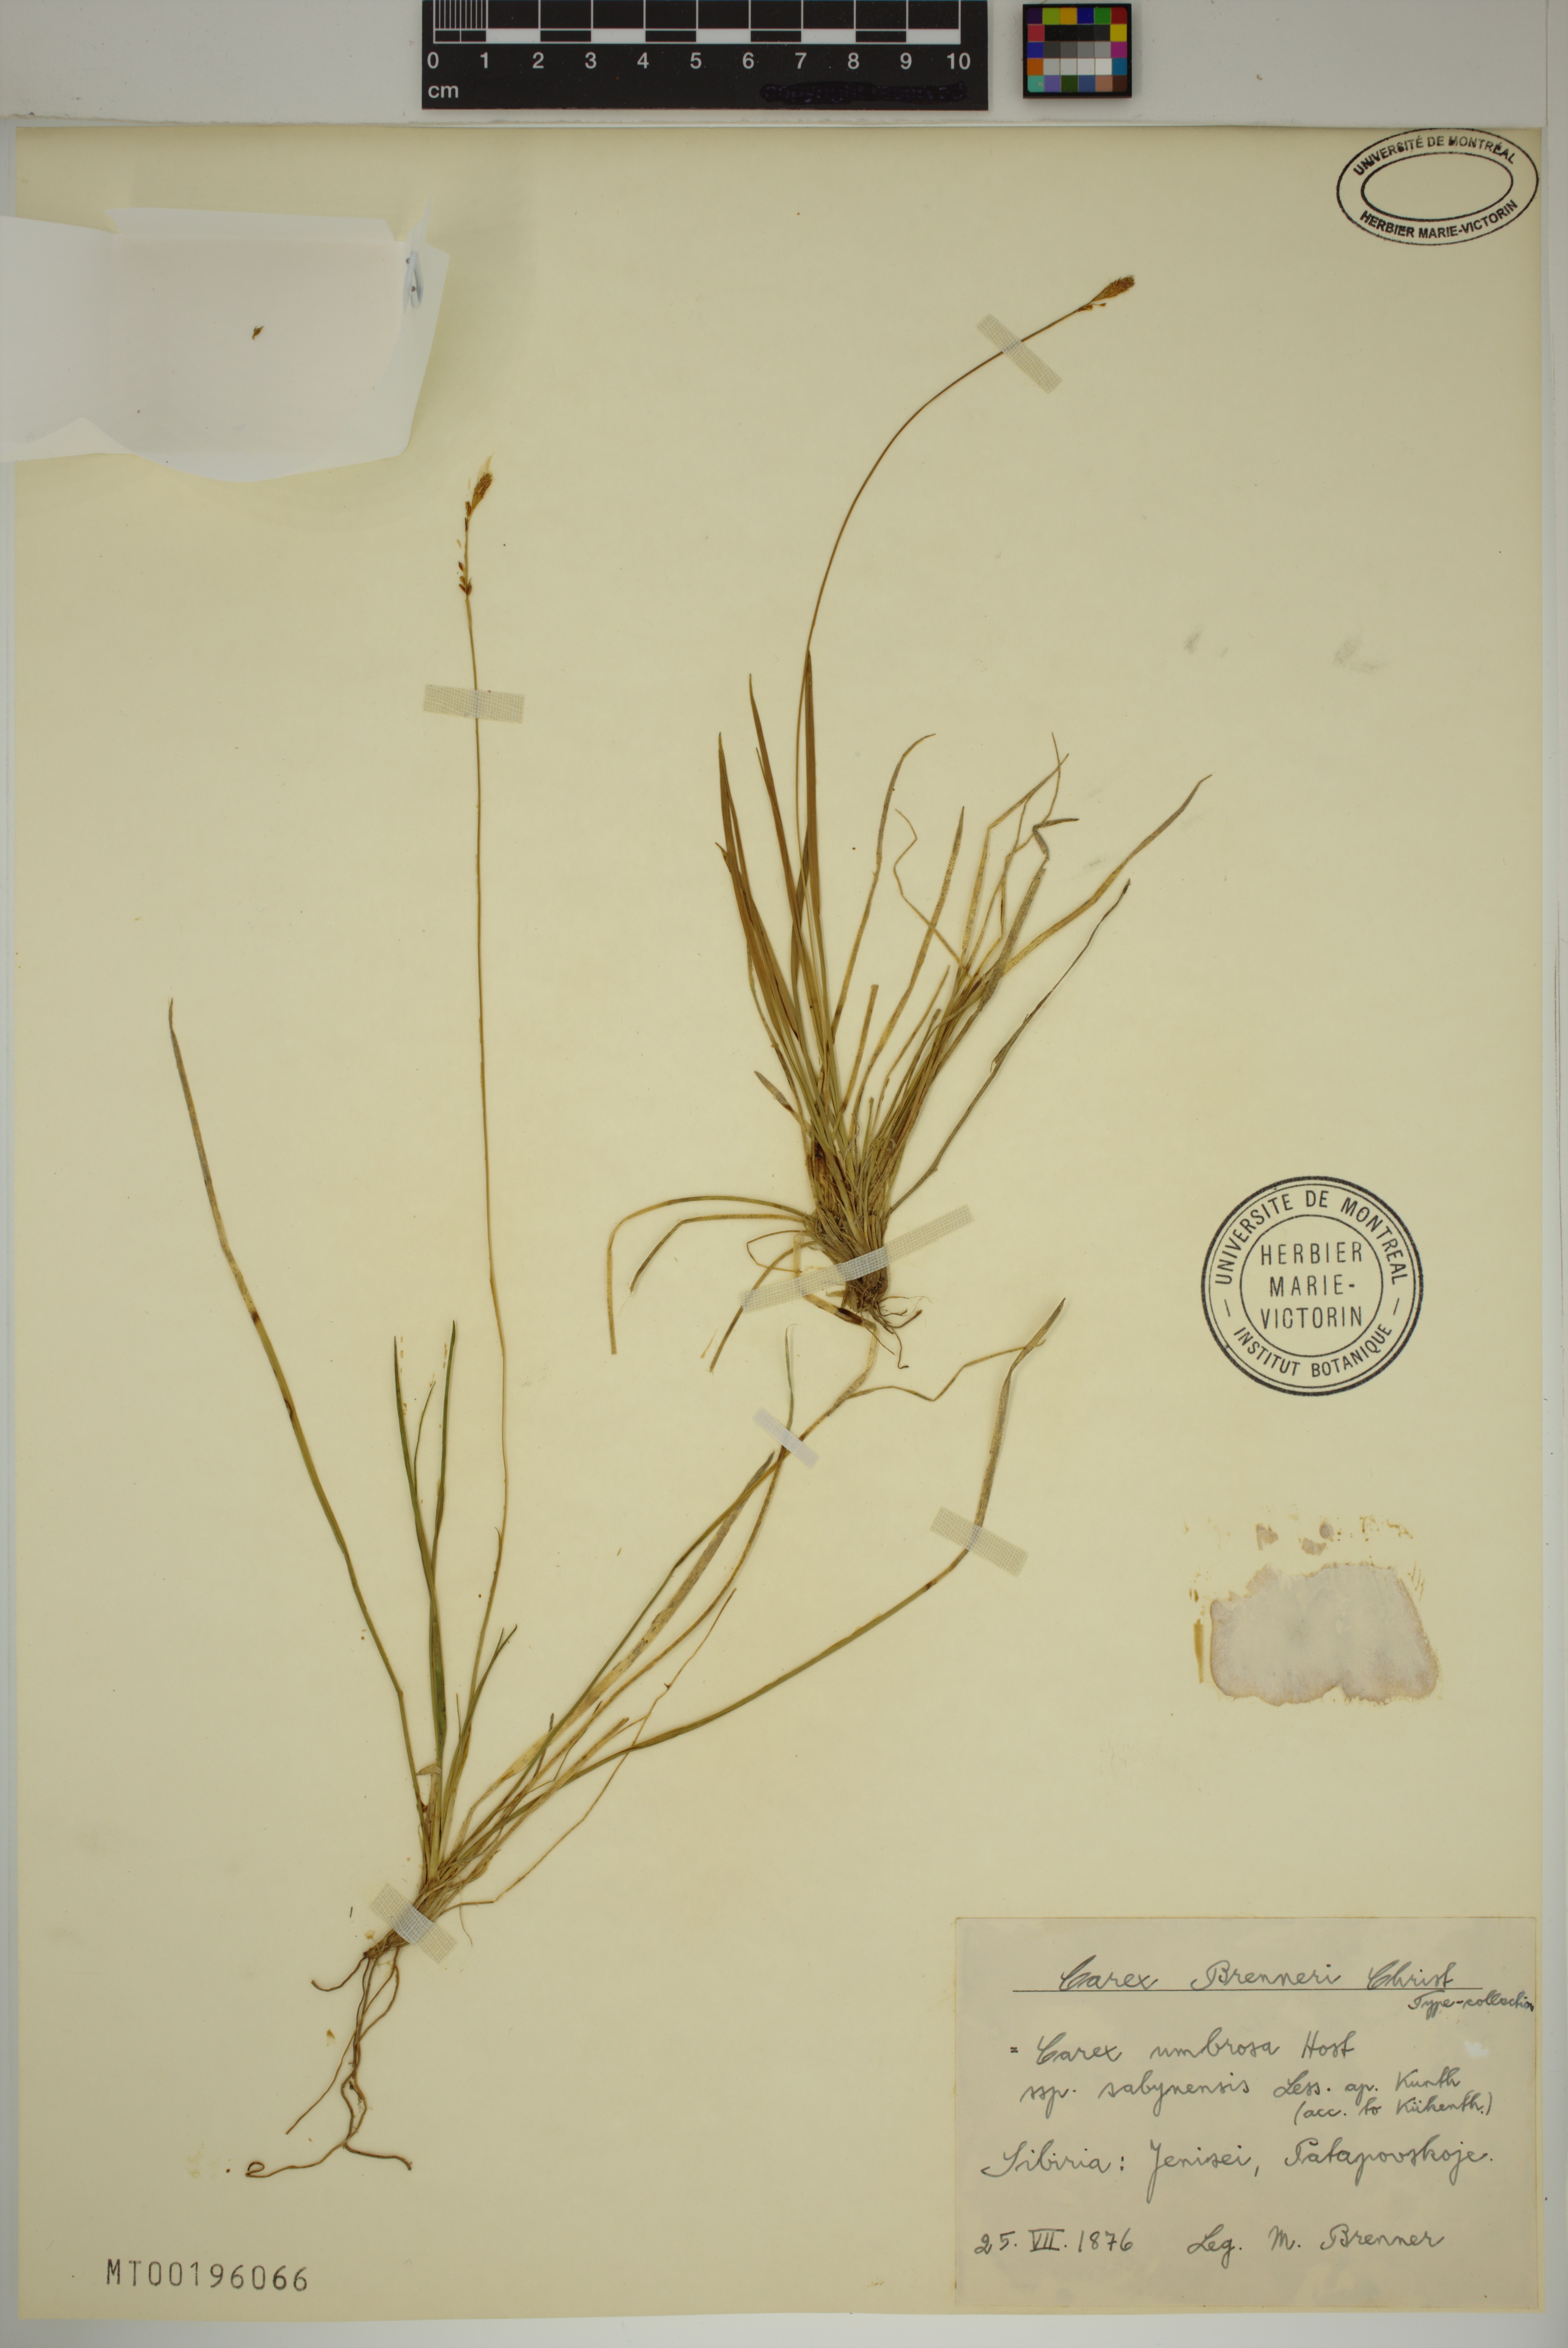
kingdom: Plantae
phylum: Tracheophyta
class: Liliopsida
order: Poales
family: Cyperaceae
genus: Carex
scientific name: Carex umbrosa
